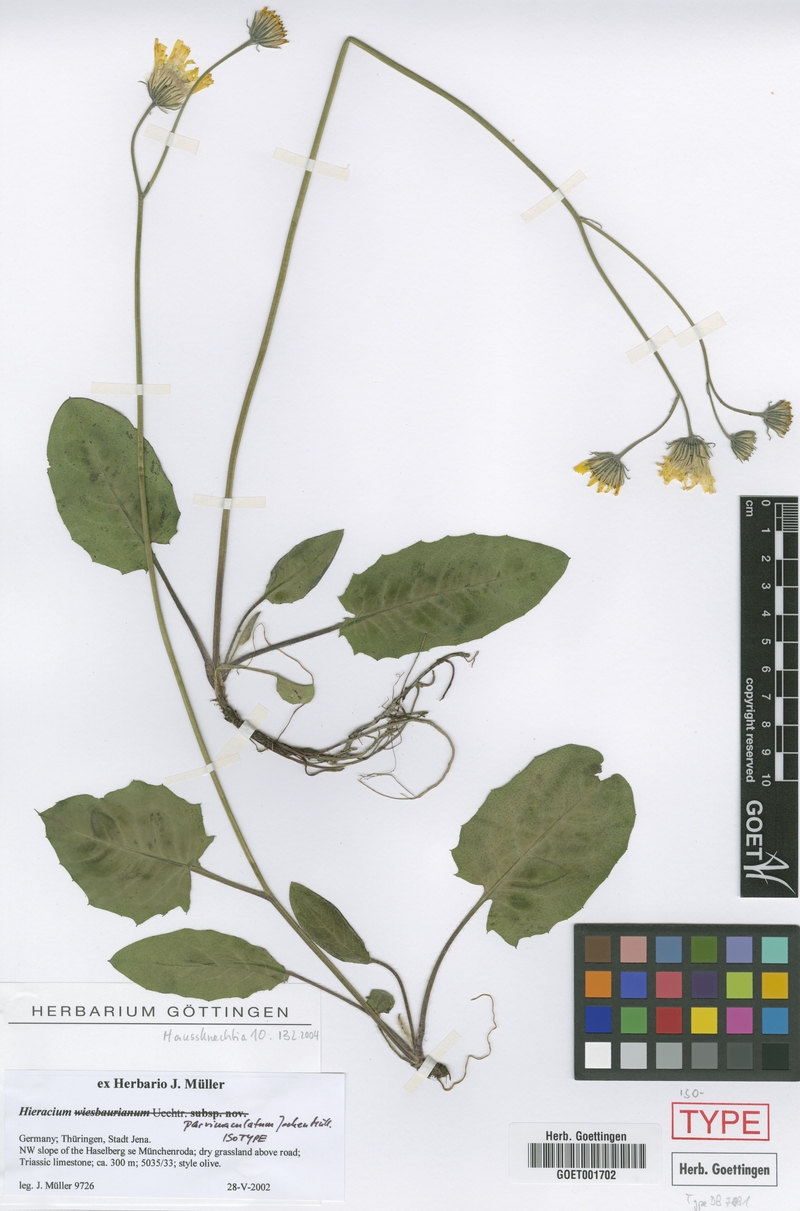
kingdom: Plantae
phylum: Tracheophyta
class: Magnoliopsida
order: Asterales
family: Asteraceae
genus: Hieracium
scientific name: Hieracium hypochoeroides
